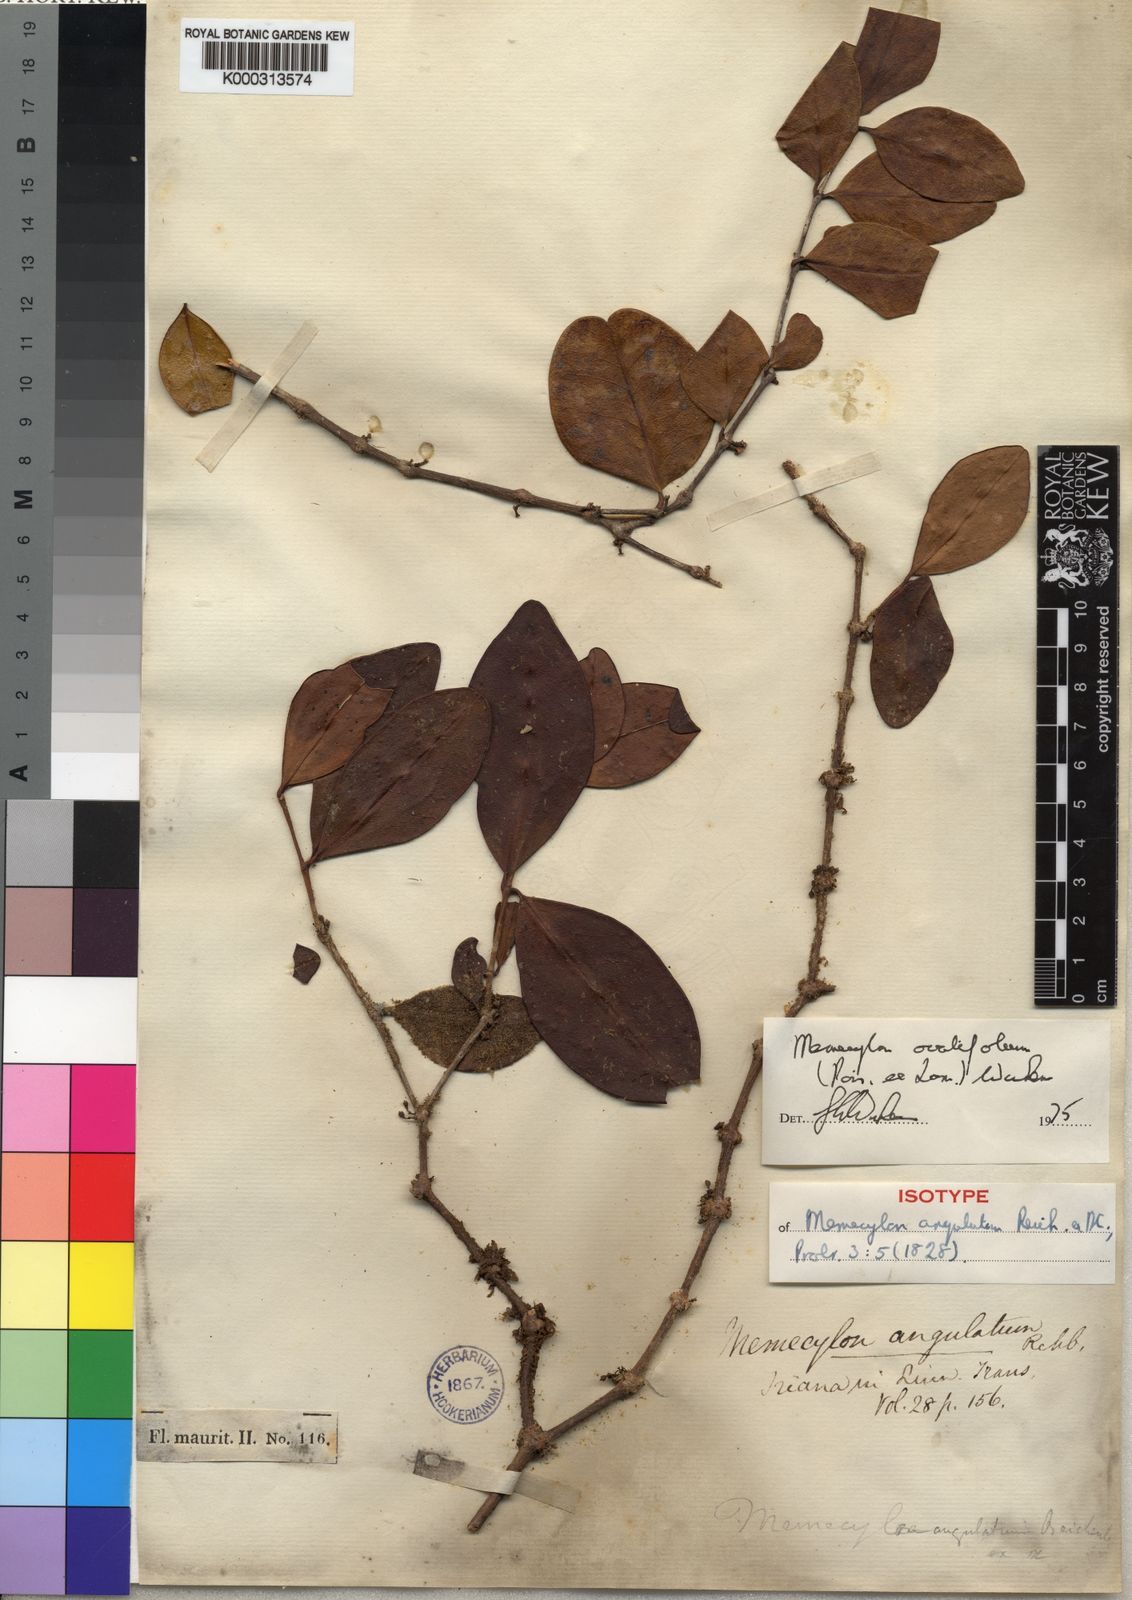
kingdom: Plantae
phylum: Tracheophyta
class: Magnoliopsida
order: Myrtales
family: Melastomataceae
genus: Memecylon
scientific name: Memecylon ovatifolium
